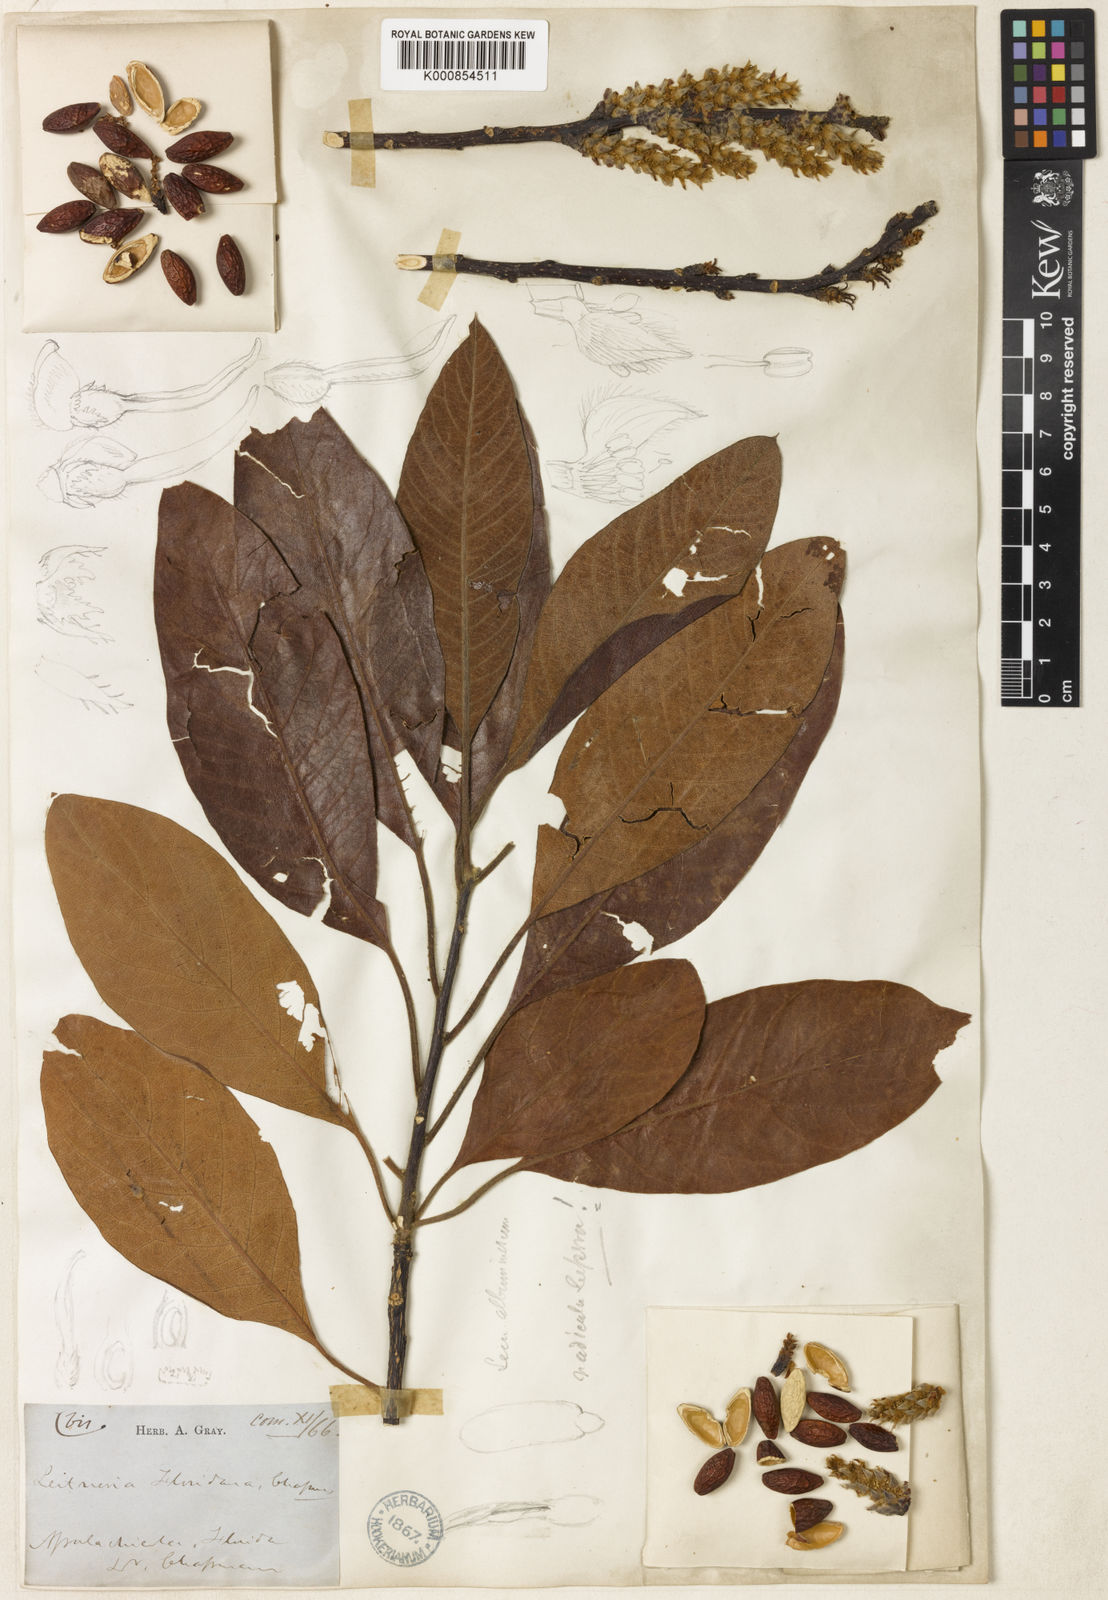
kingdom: Plantae
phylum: Tracheophyta
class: Magnoliopsida
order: Sapindales
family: Simaroubaceae
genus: Leitneria
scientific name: Leitneria floridana
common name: Corkwood
